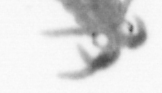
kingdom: Animalia
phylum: Annelida
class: Polychaeta
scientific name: Polychaeta
